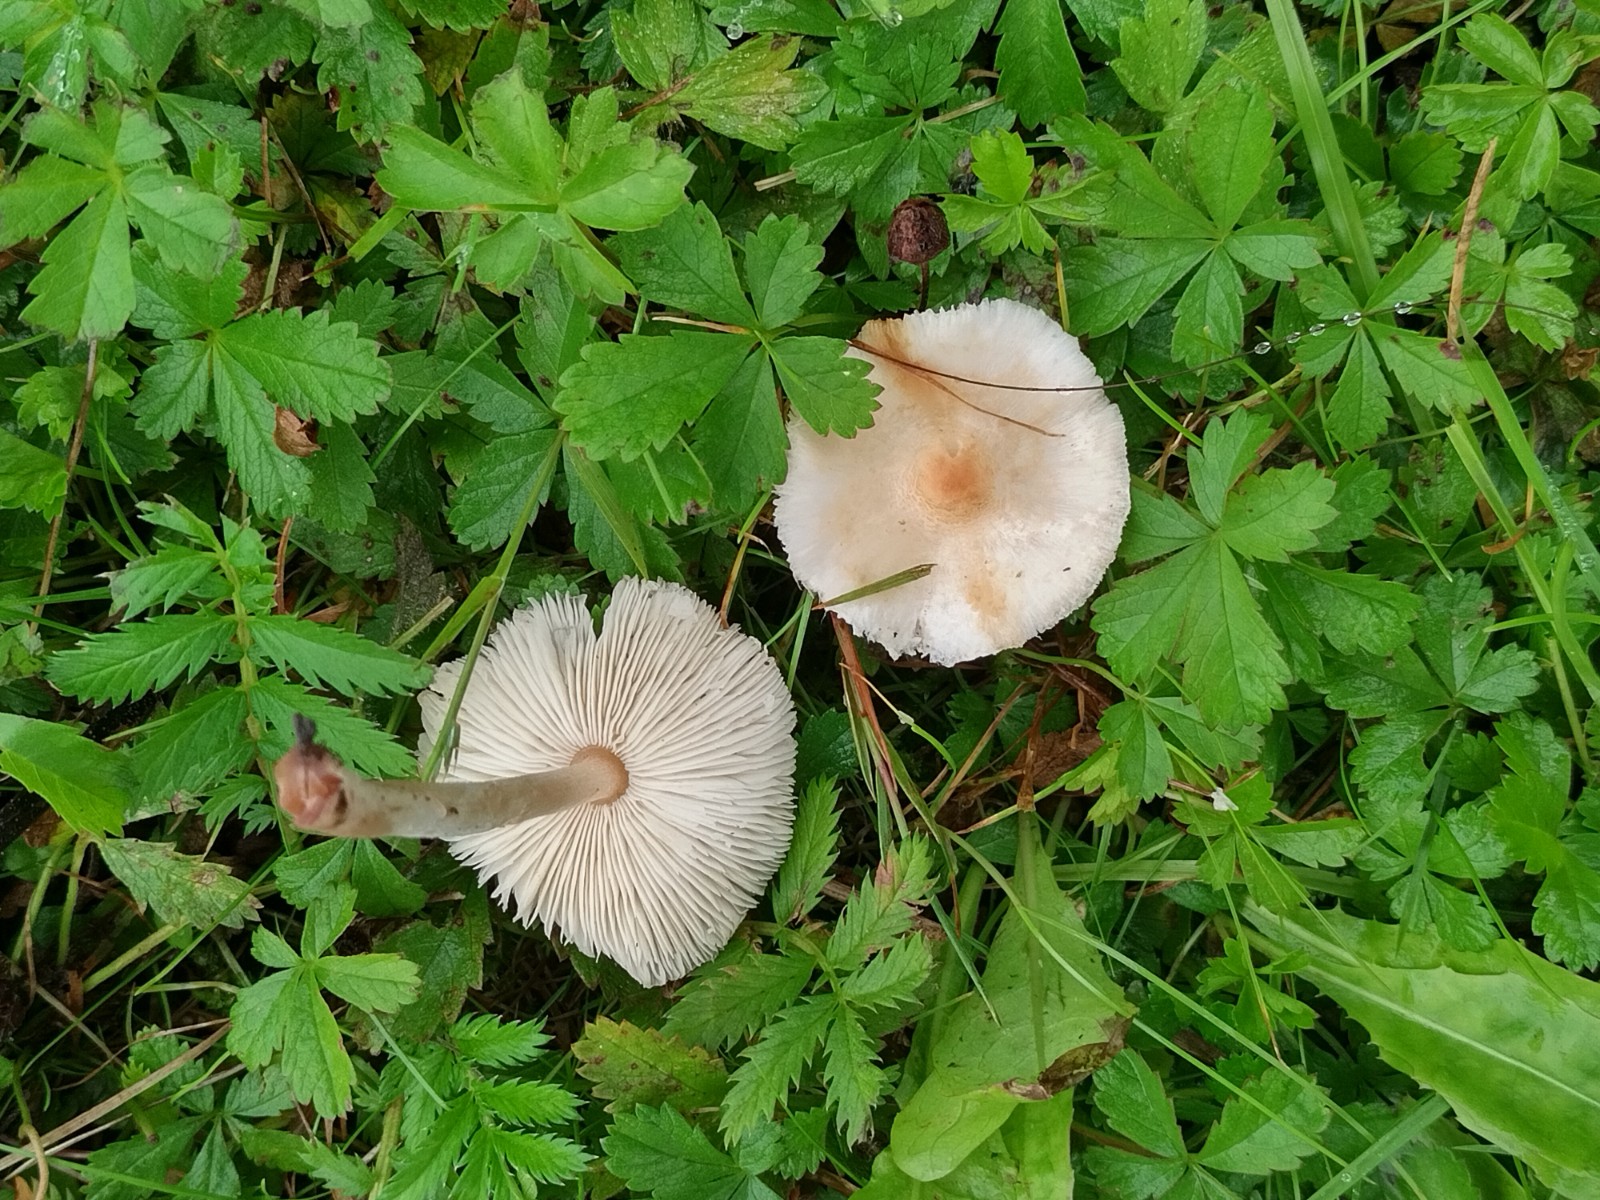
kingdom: Fungi
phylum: Basidiomycota
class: Agaricomycetes
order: Agaricales
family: Agaricaceae
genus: Lepiota
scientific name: Lepiota cristata
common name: stinkende parasolhat
